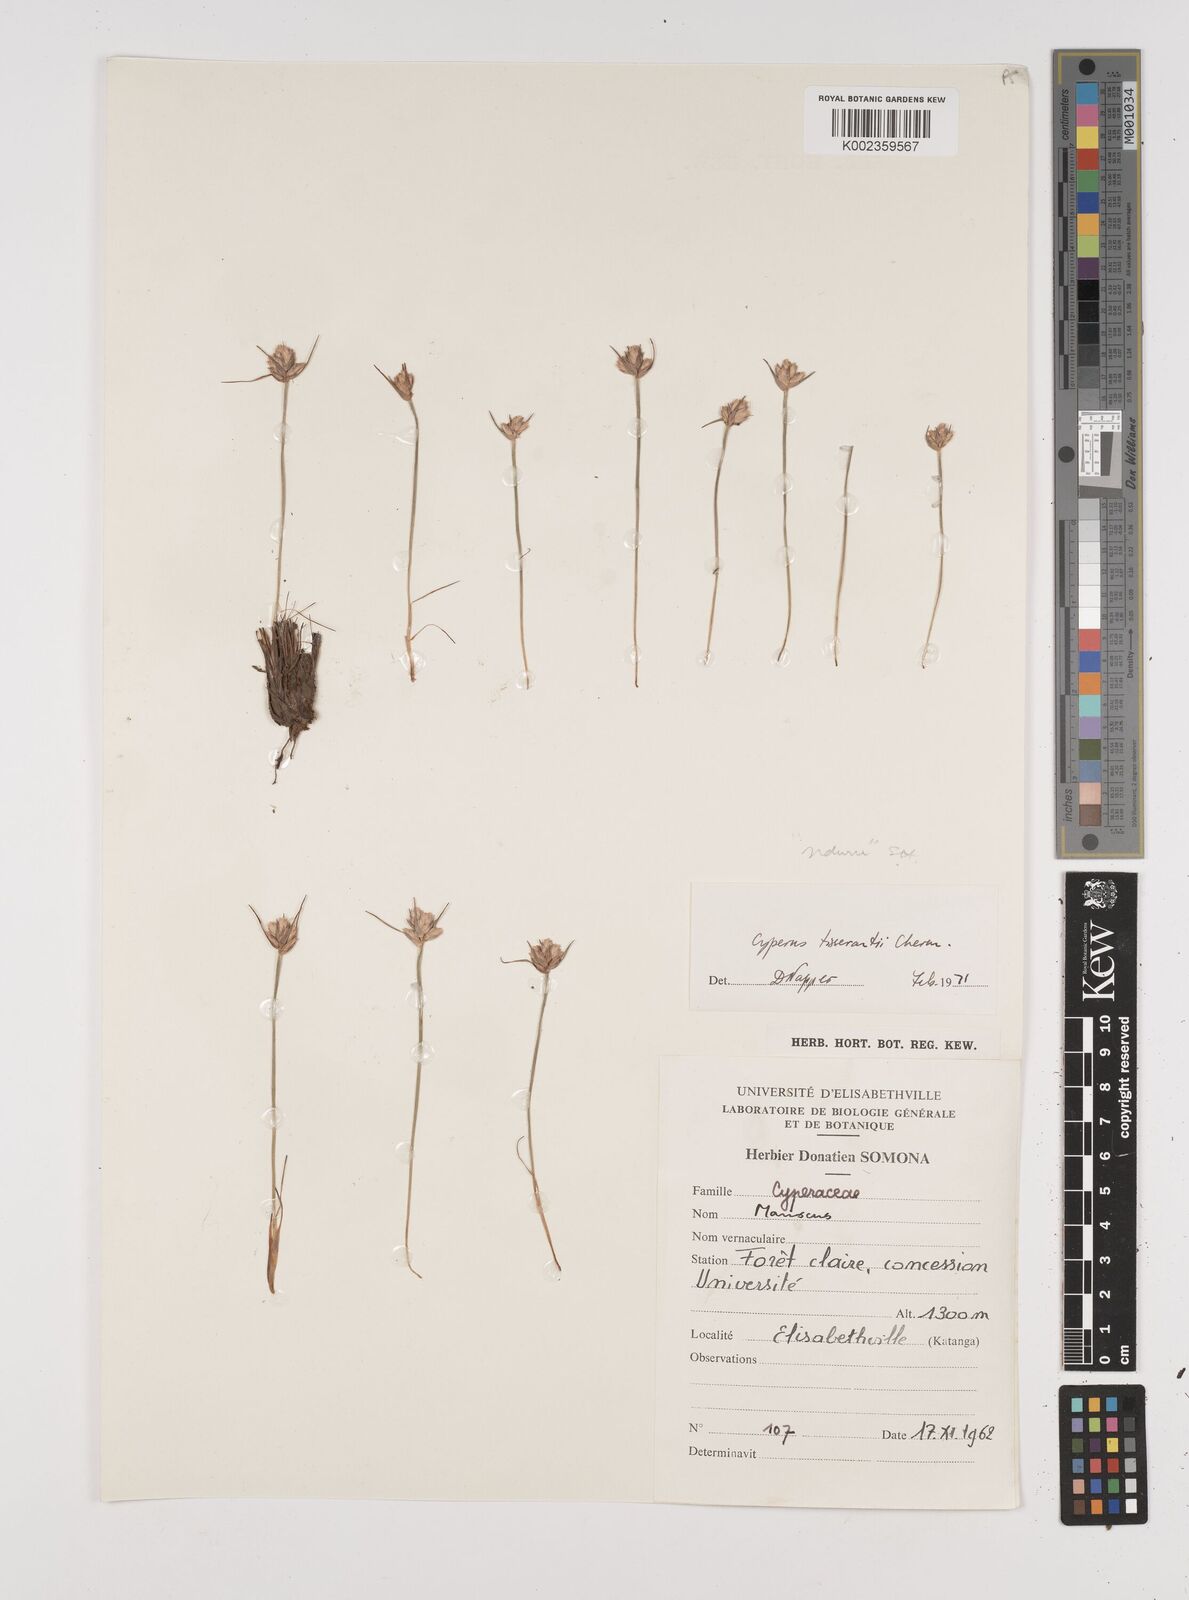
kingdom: Plantae
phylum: Tracheophyta
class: Liliopsida
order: Poales
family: Cyperaceae
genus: Cyperus
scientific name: Cyperus nduru
